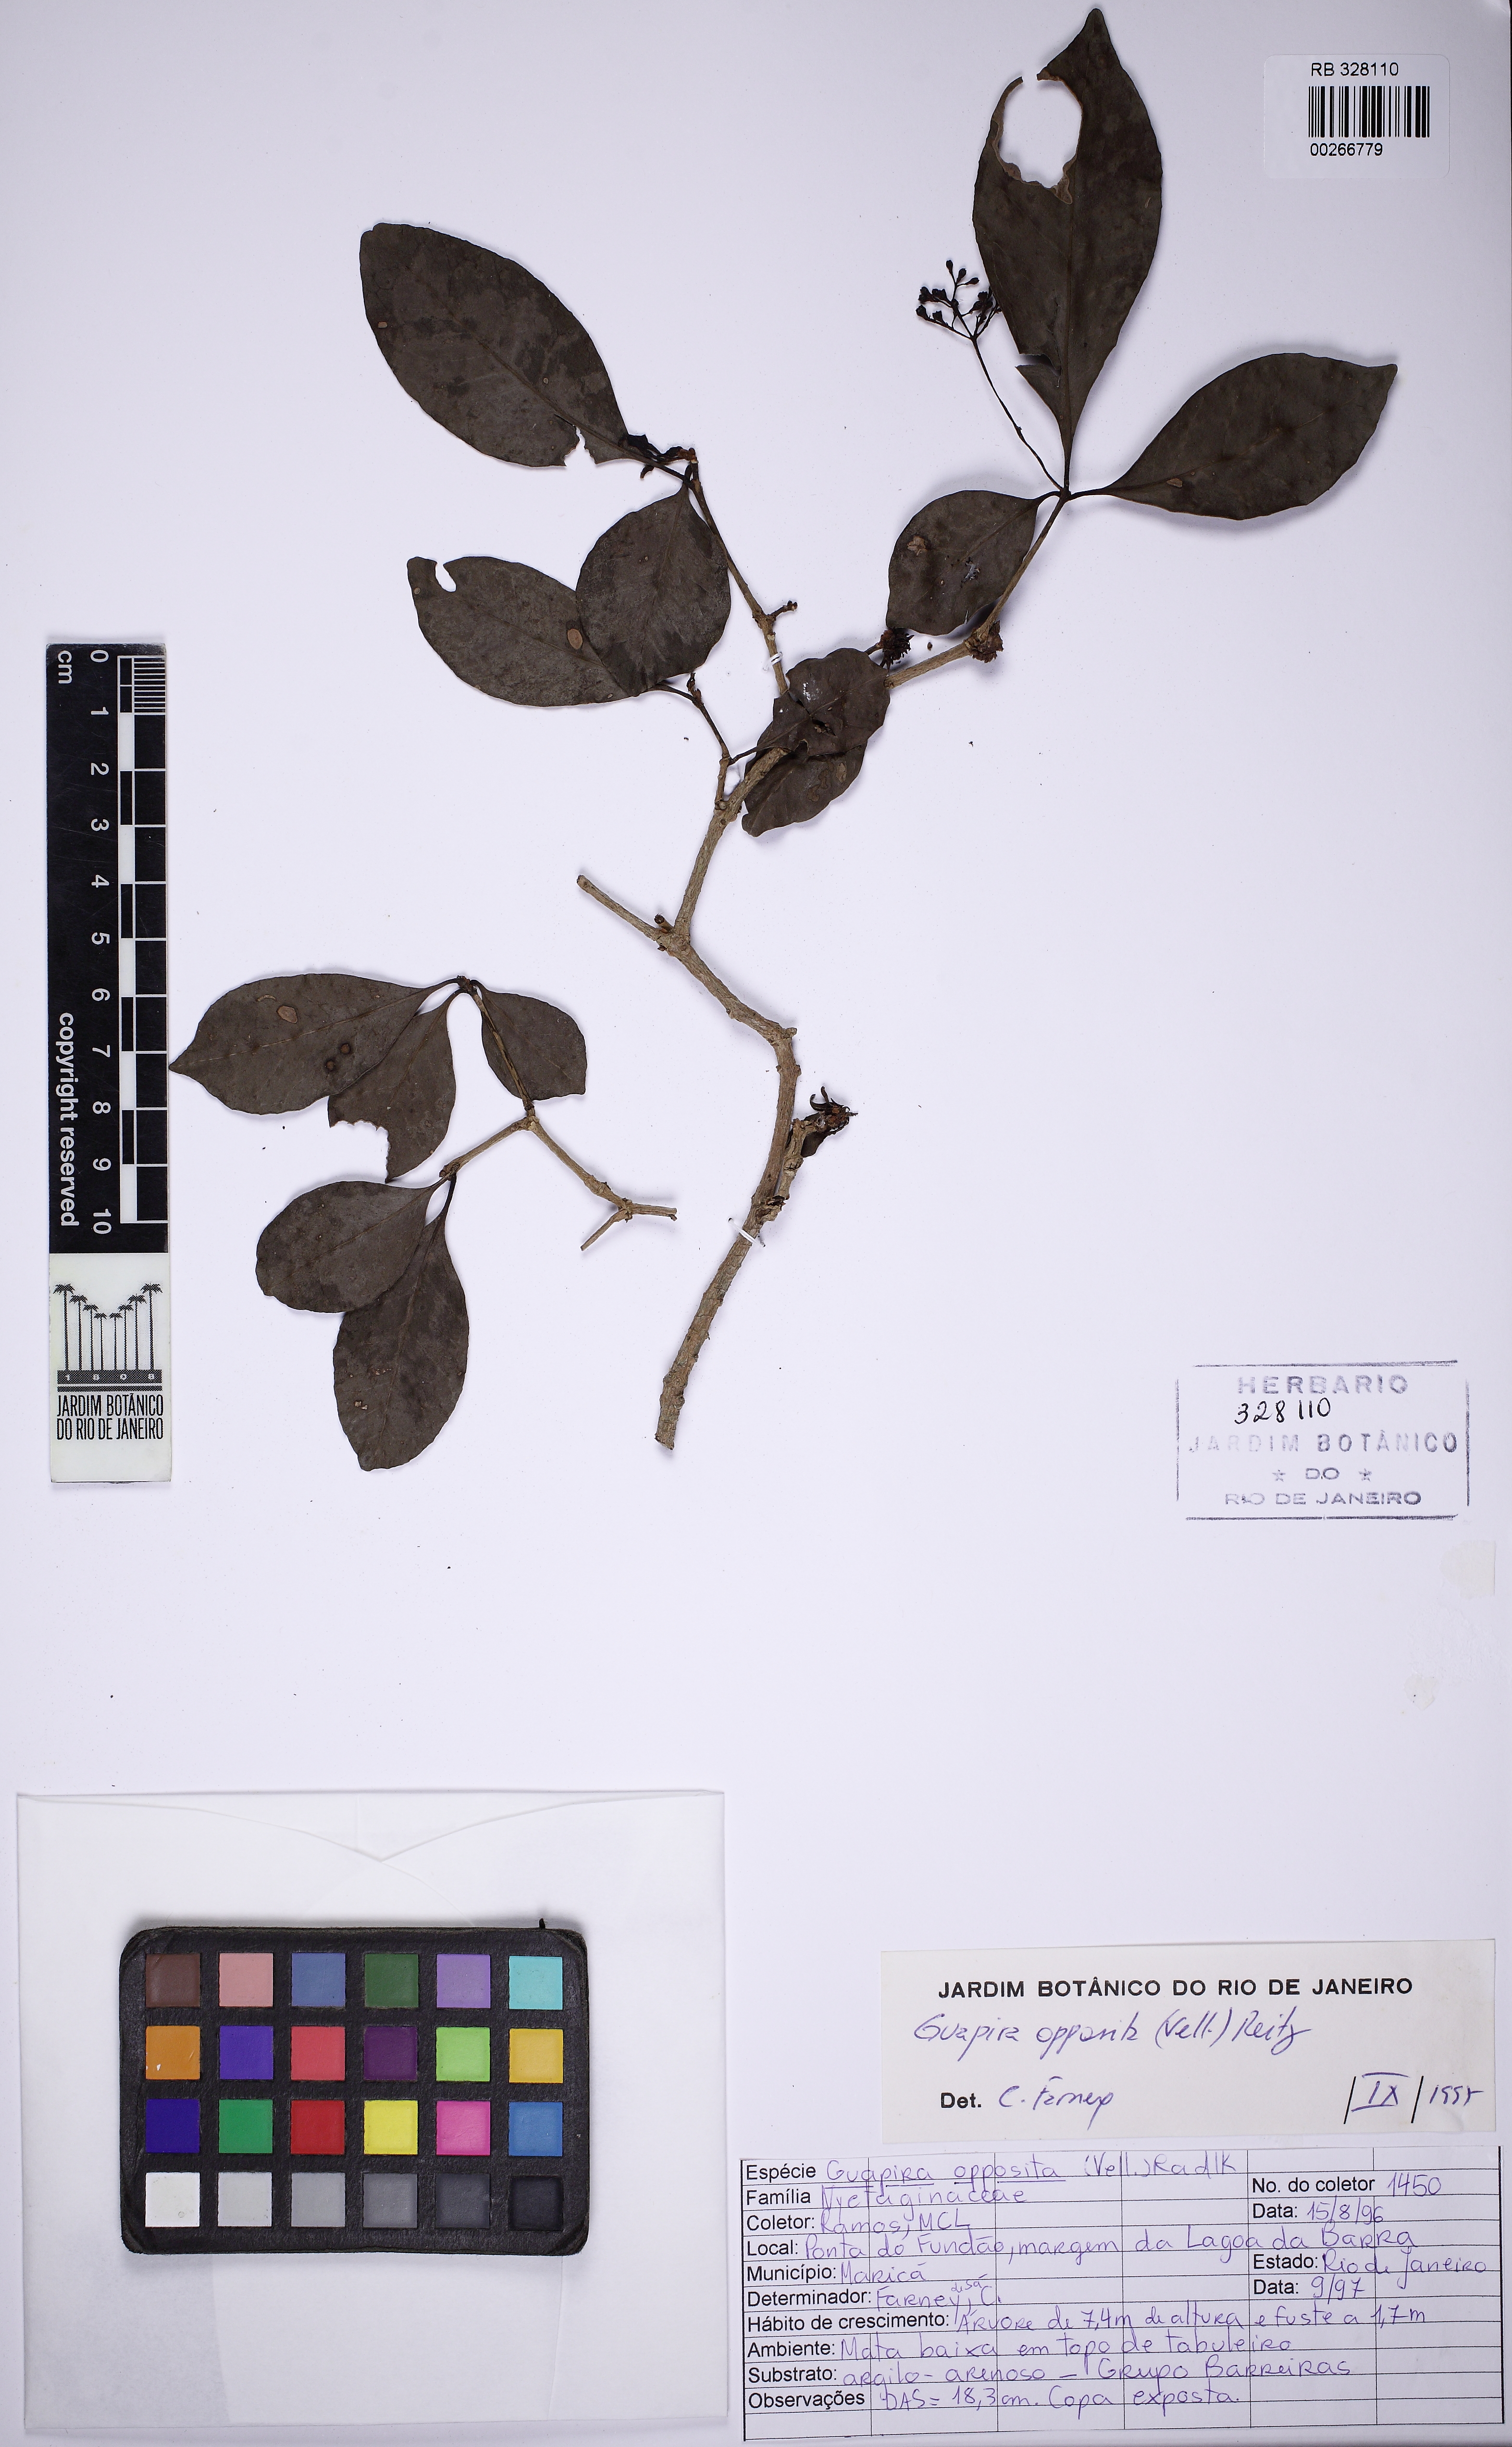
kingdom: Plantae
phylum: Tracheophyta
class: Magnoliopsida
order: Caryophyllales
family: Nyctaginaceae
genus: Guapira
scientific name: Guapira opposita
